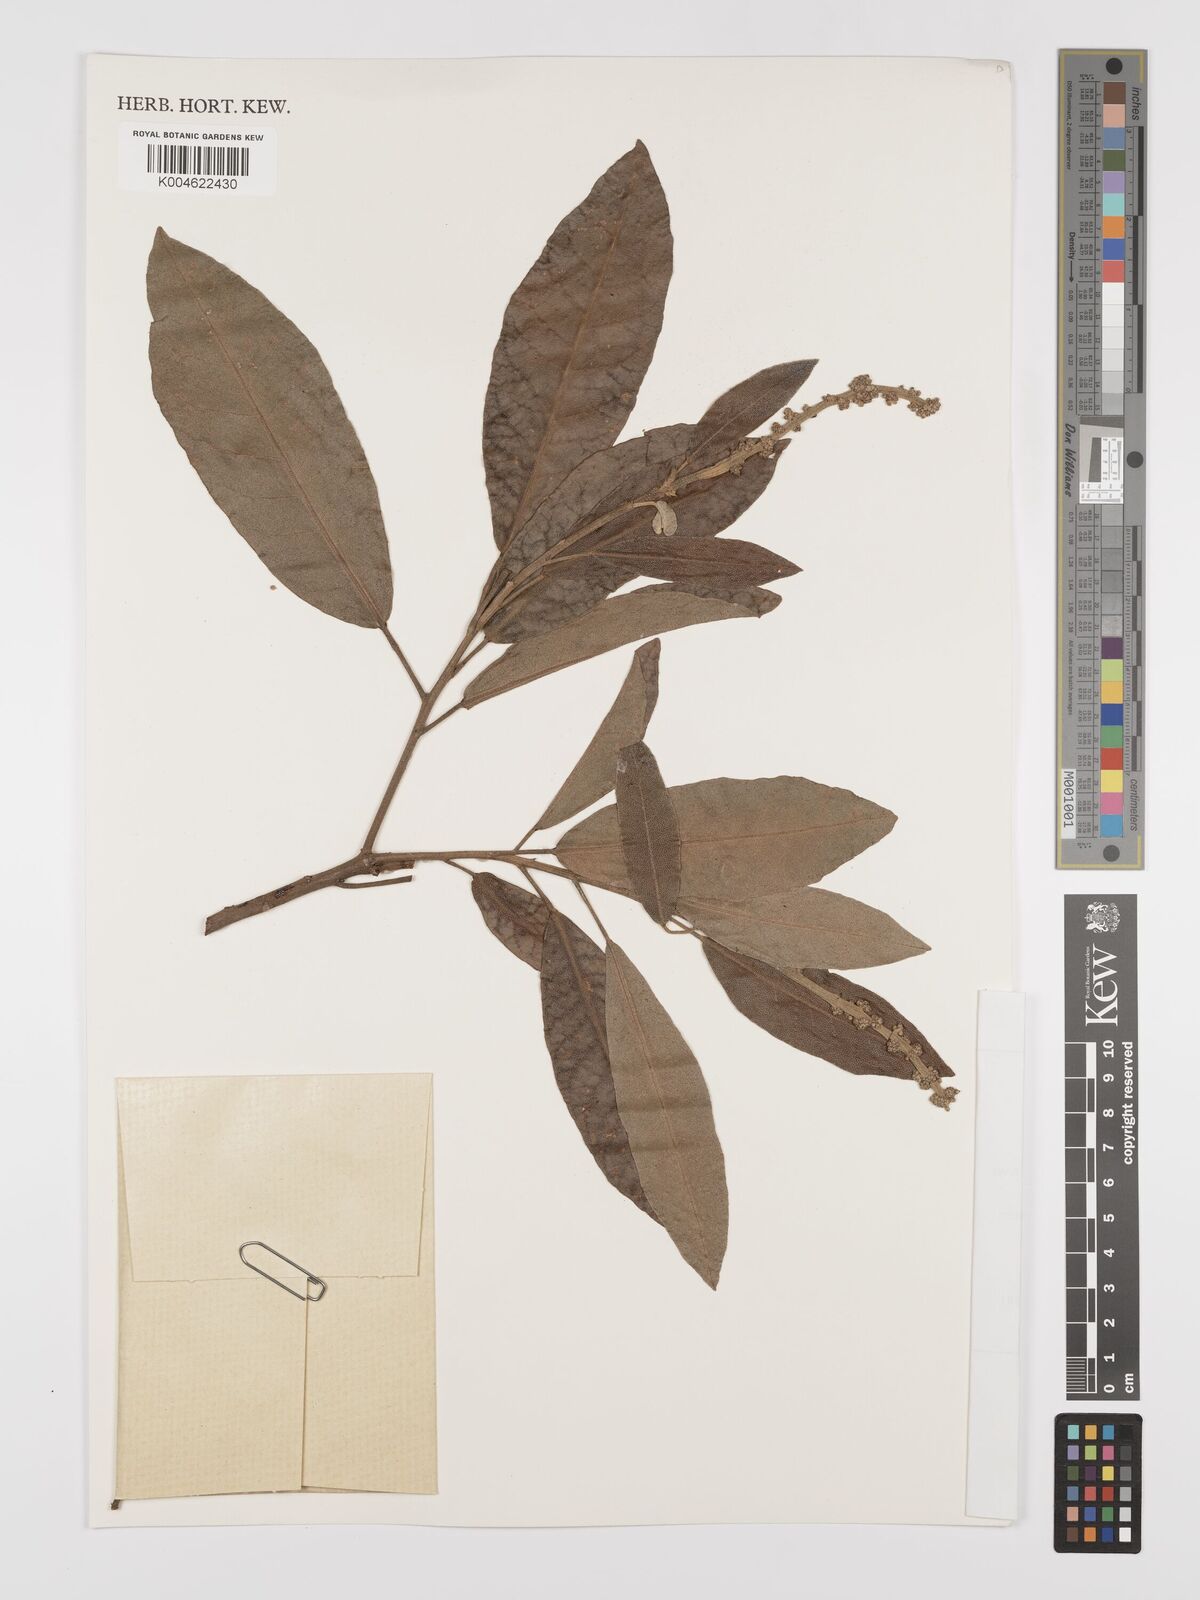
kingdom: Plantae
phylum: Tracheophyta
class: Magnoliopsida
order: Malpighiales
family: Euphorbiaceae
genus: Croton
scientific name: Croton
